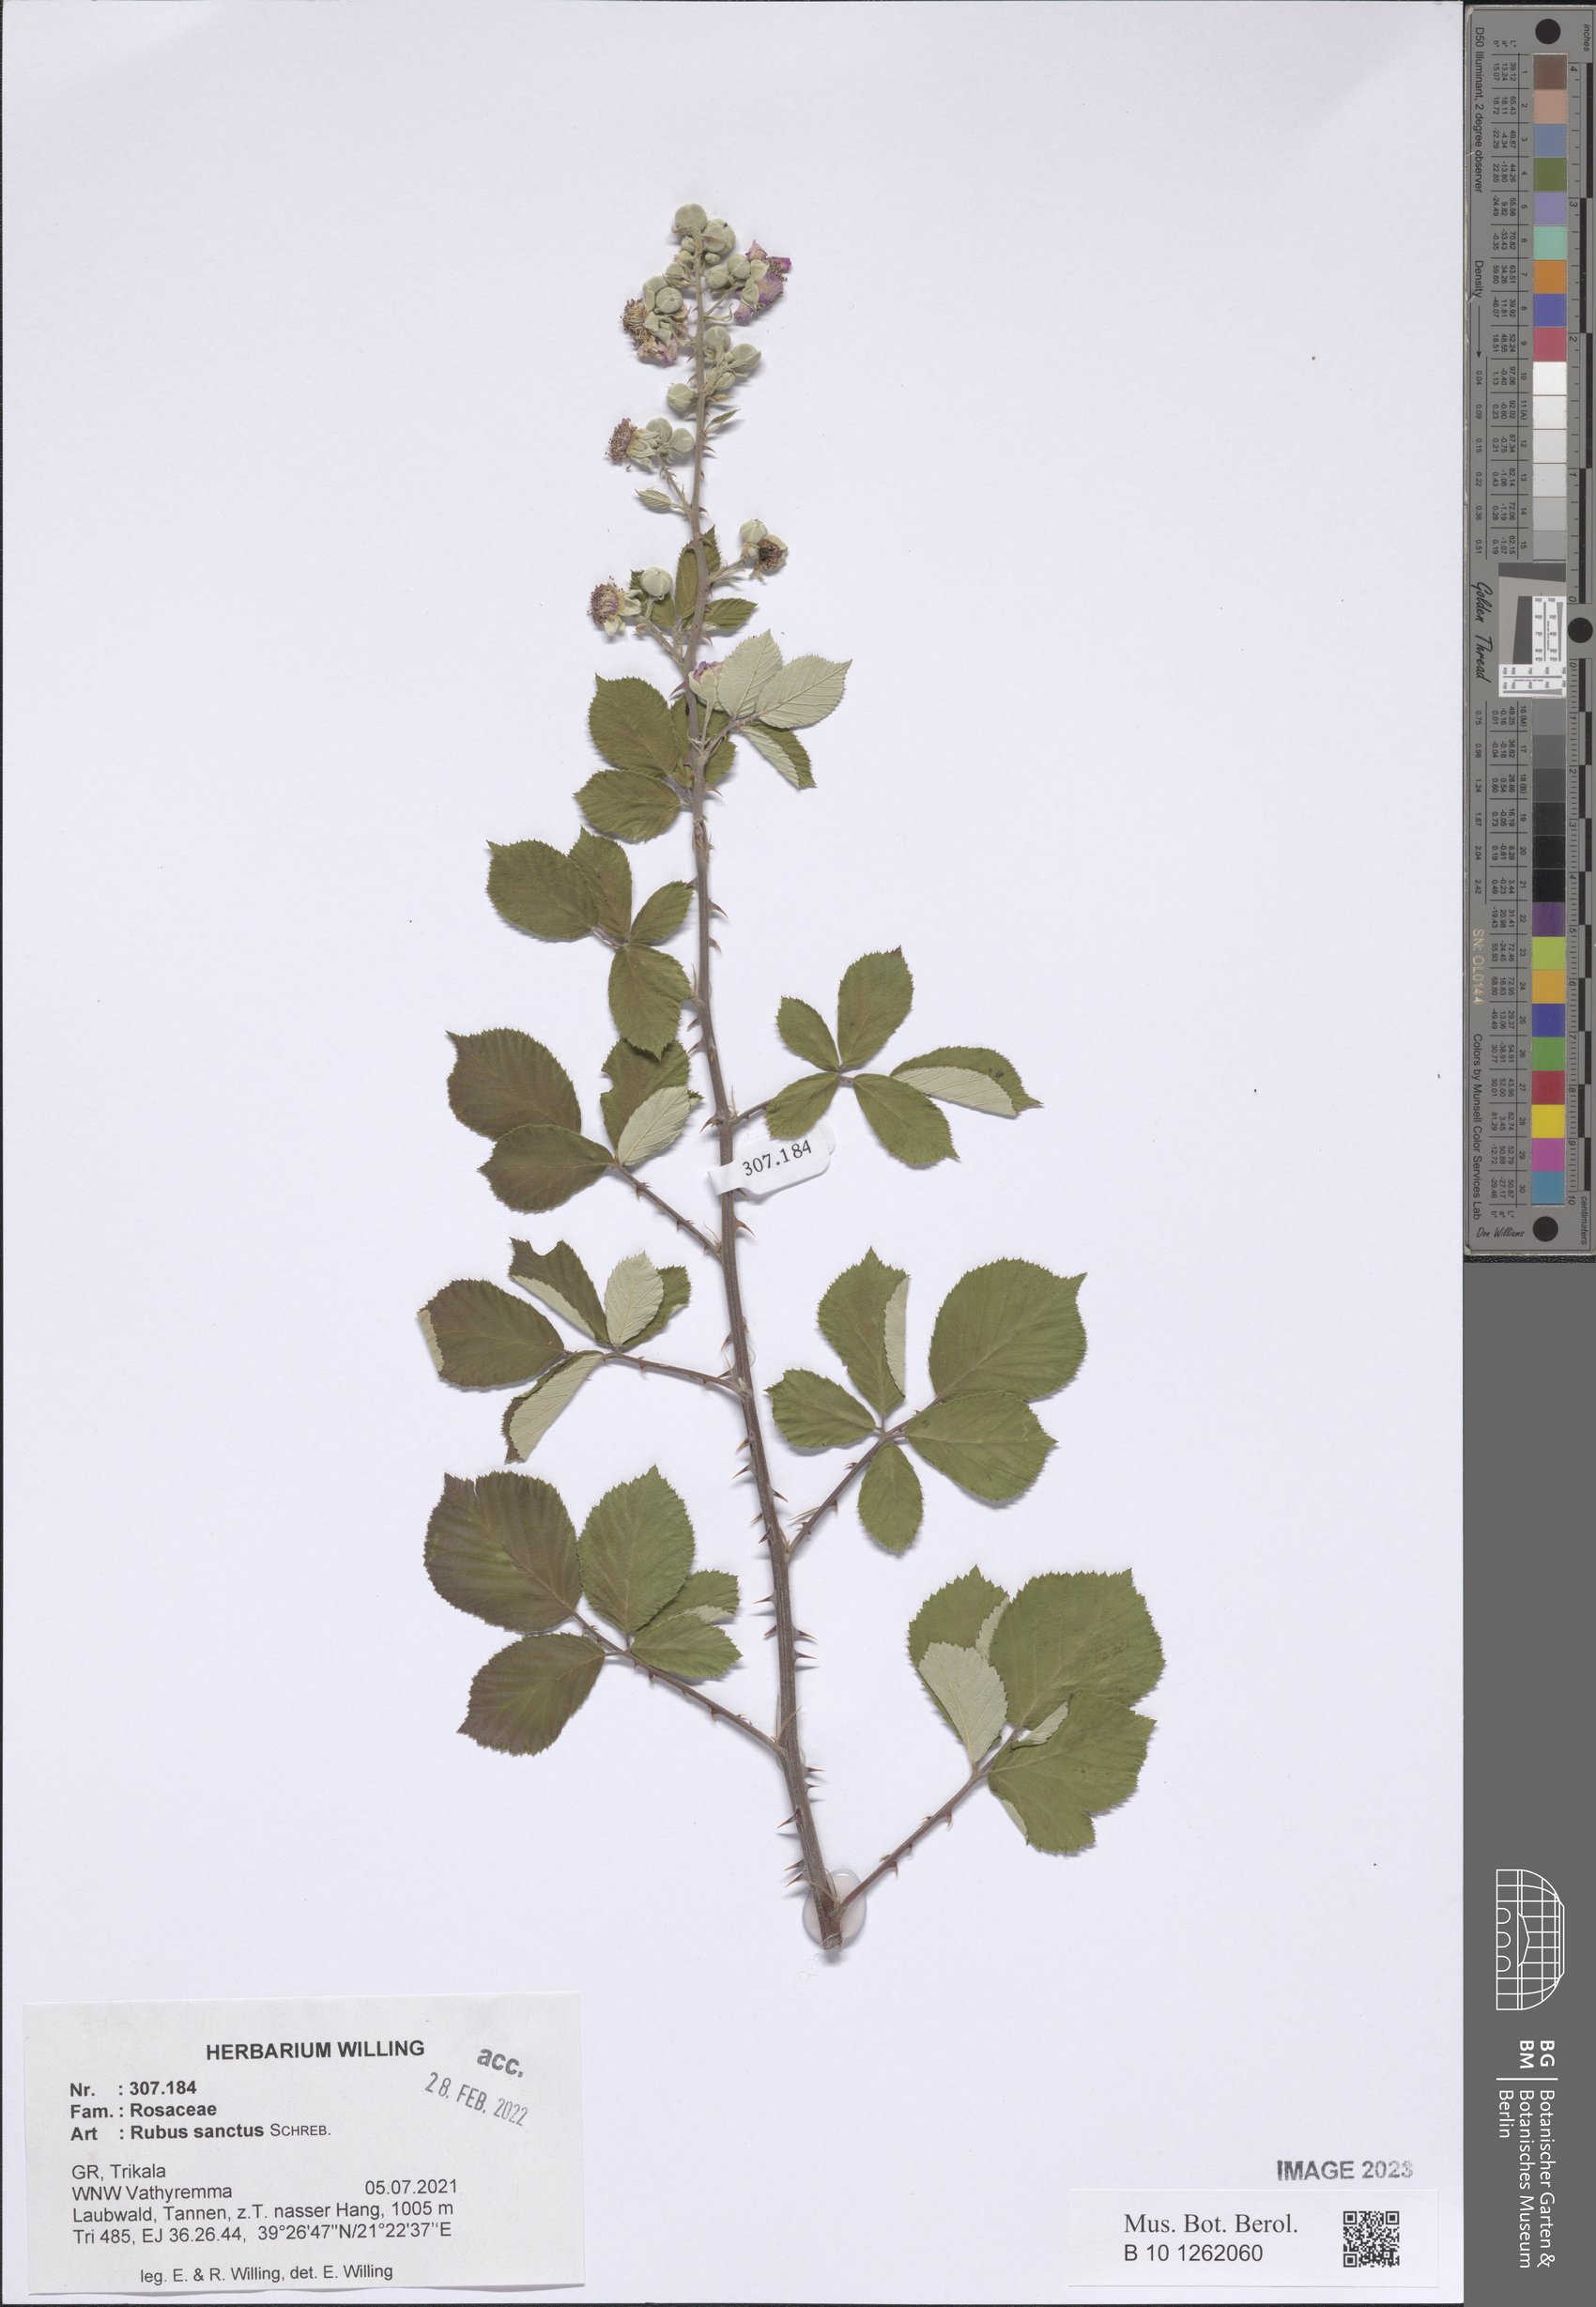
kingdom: Plantae
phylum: Tracheophyta
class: Magnoliopsida
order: Rosales
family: Rosaceae
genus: Rubus
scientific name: Rubus sanctus
